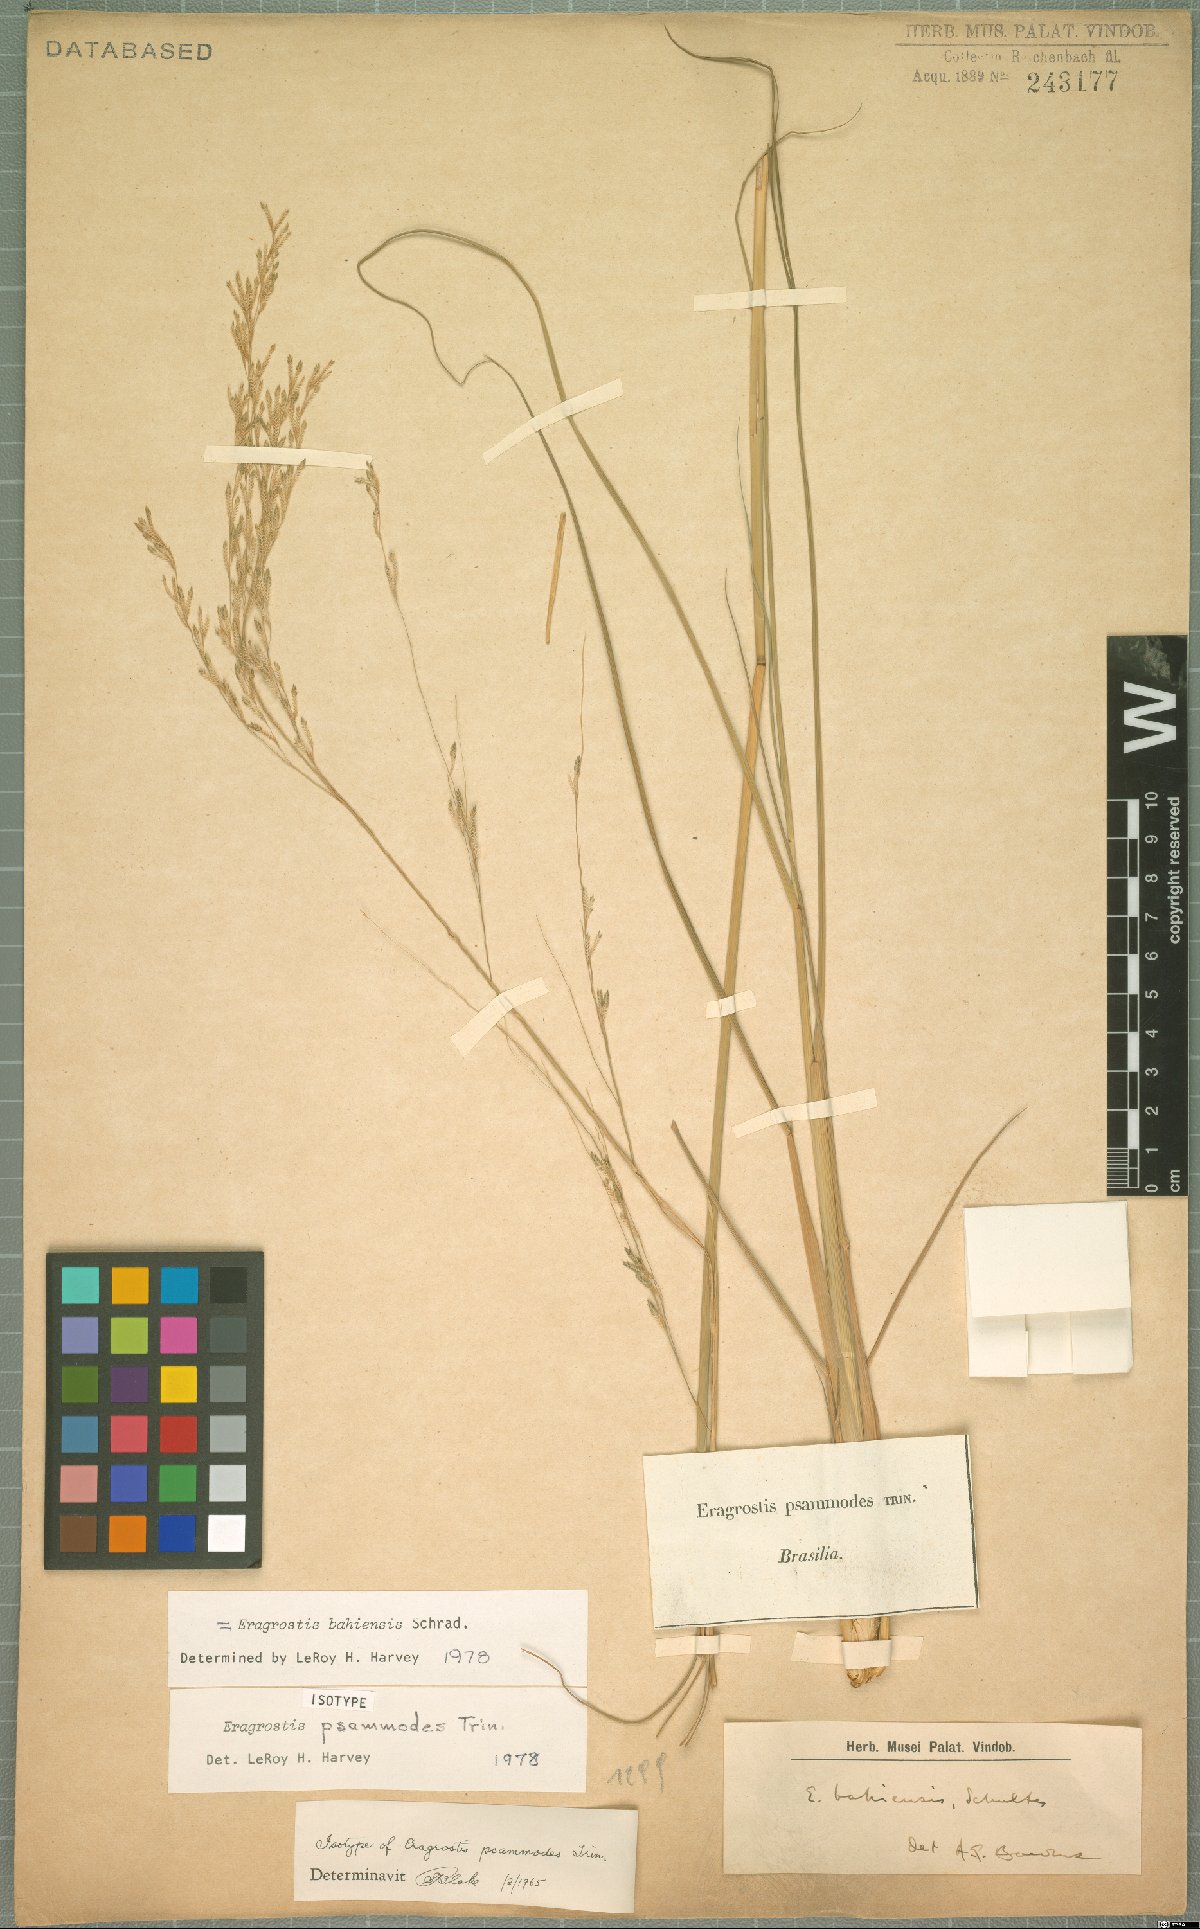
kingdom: Plantae
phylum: Tracheophyta
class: Liliopsida
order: Poales
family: Poaceae
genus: Eragrostis
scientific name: Eragrostis bahiensis
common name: Bahia lovegrass
